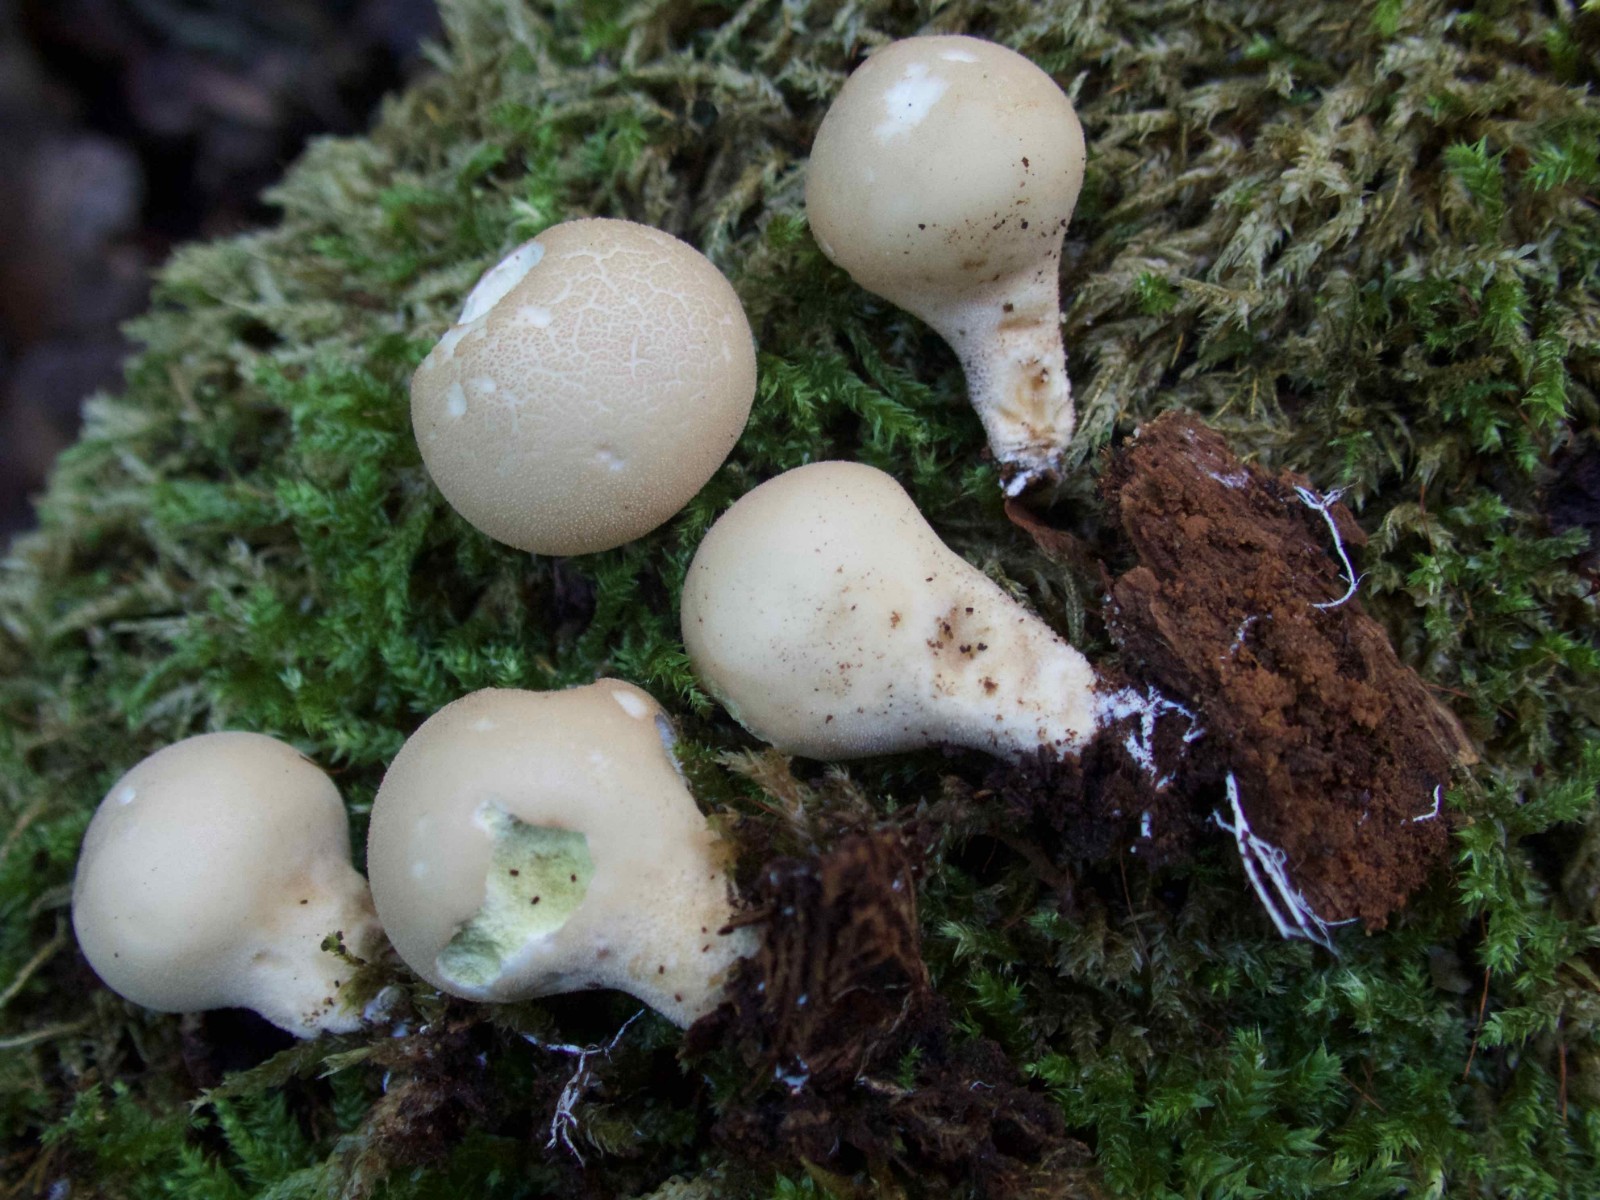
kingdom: Fungi
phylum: Basidiomycota
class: Agaricomycetes
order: Agaricales
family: Lycoperdaceae
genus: Apioperdon
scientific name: Apioperdon pyriforme
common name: pære-støvbold
